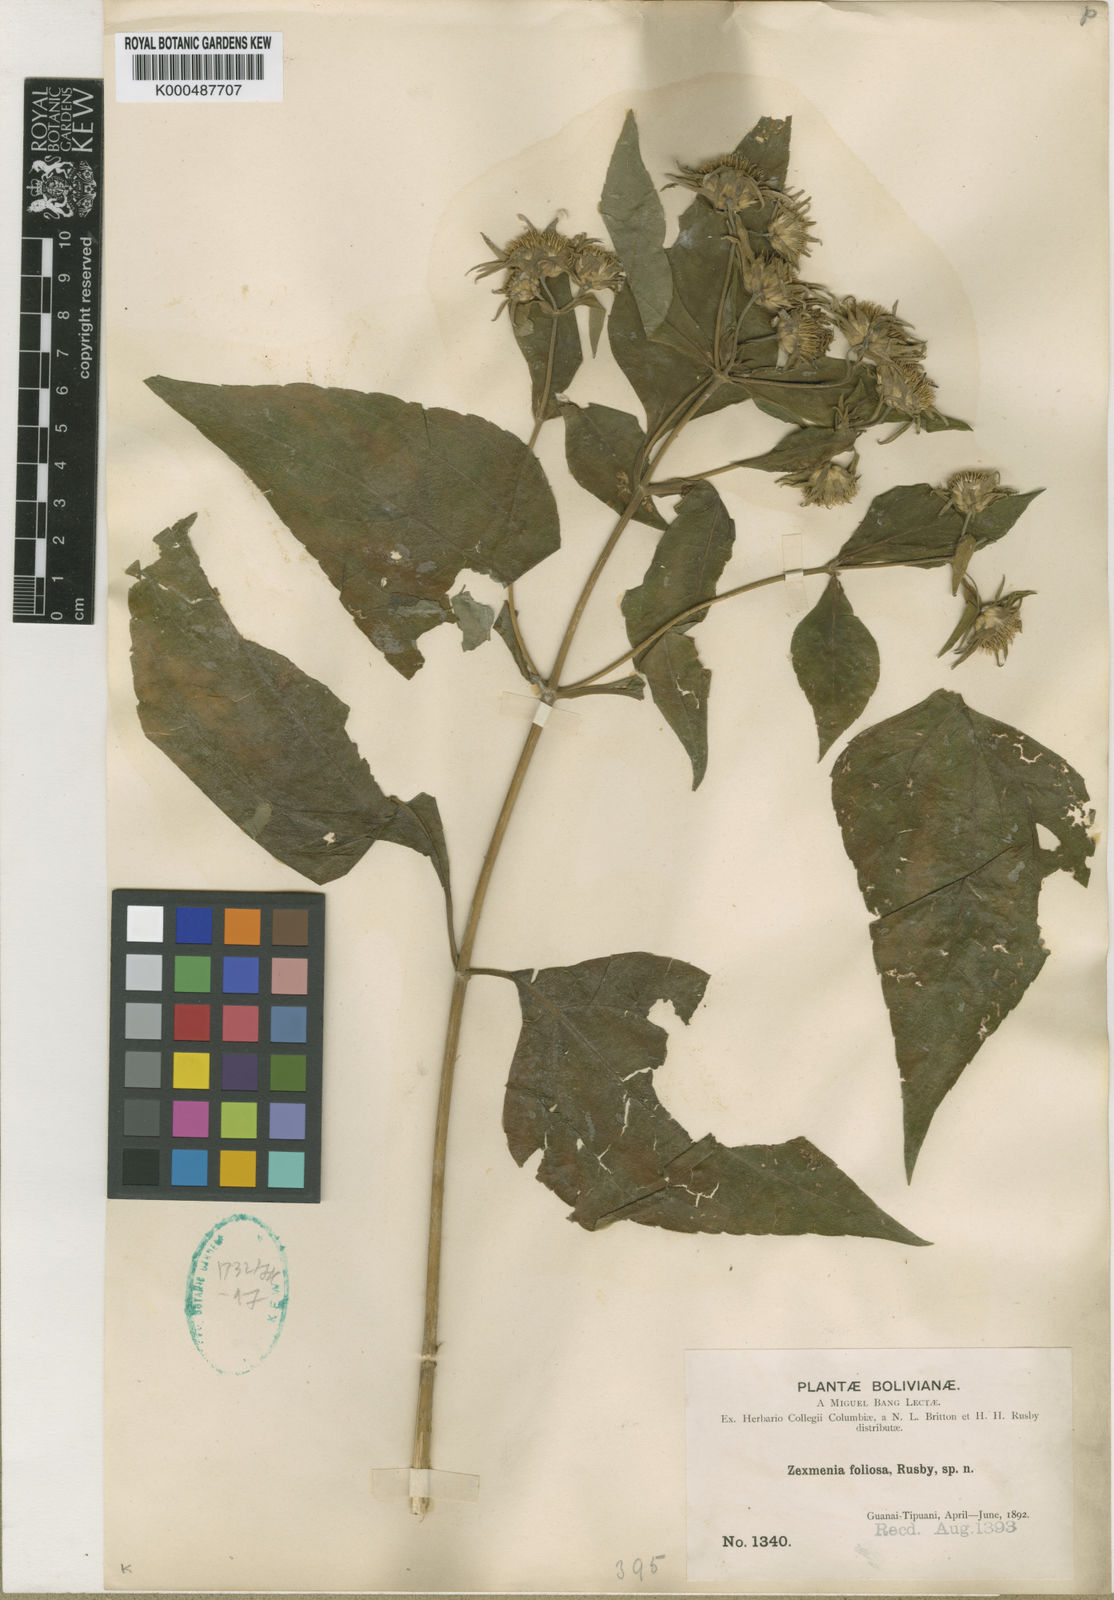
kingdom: Plantae
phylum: Tracheophyta
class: Magnoliopsida
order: Asterales
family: Asteraceae
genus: Zexmenia
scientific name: Zexmenia
